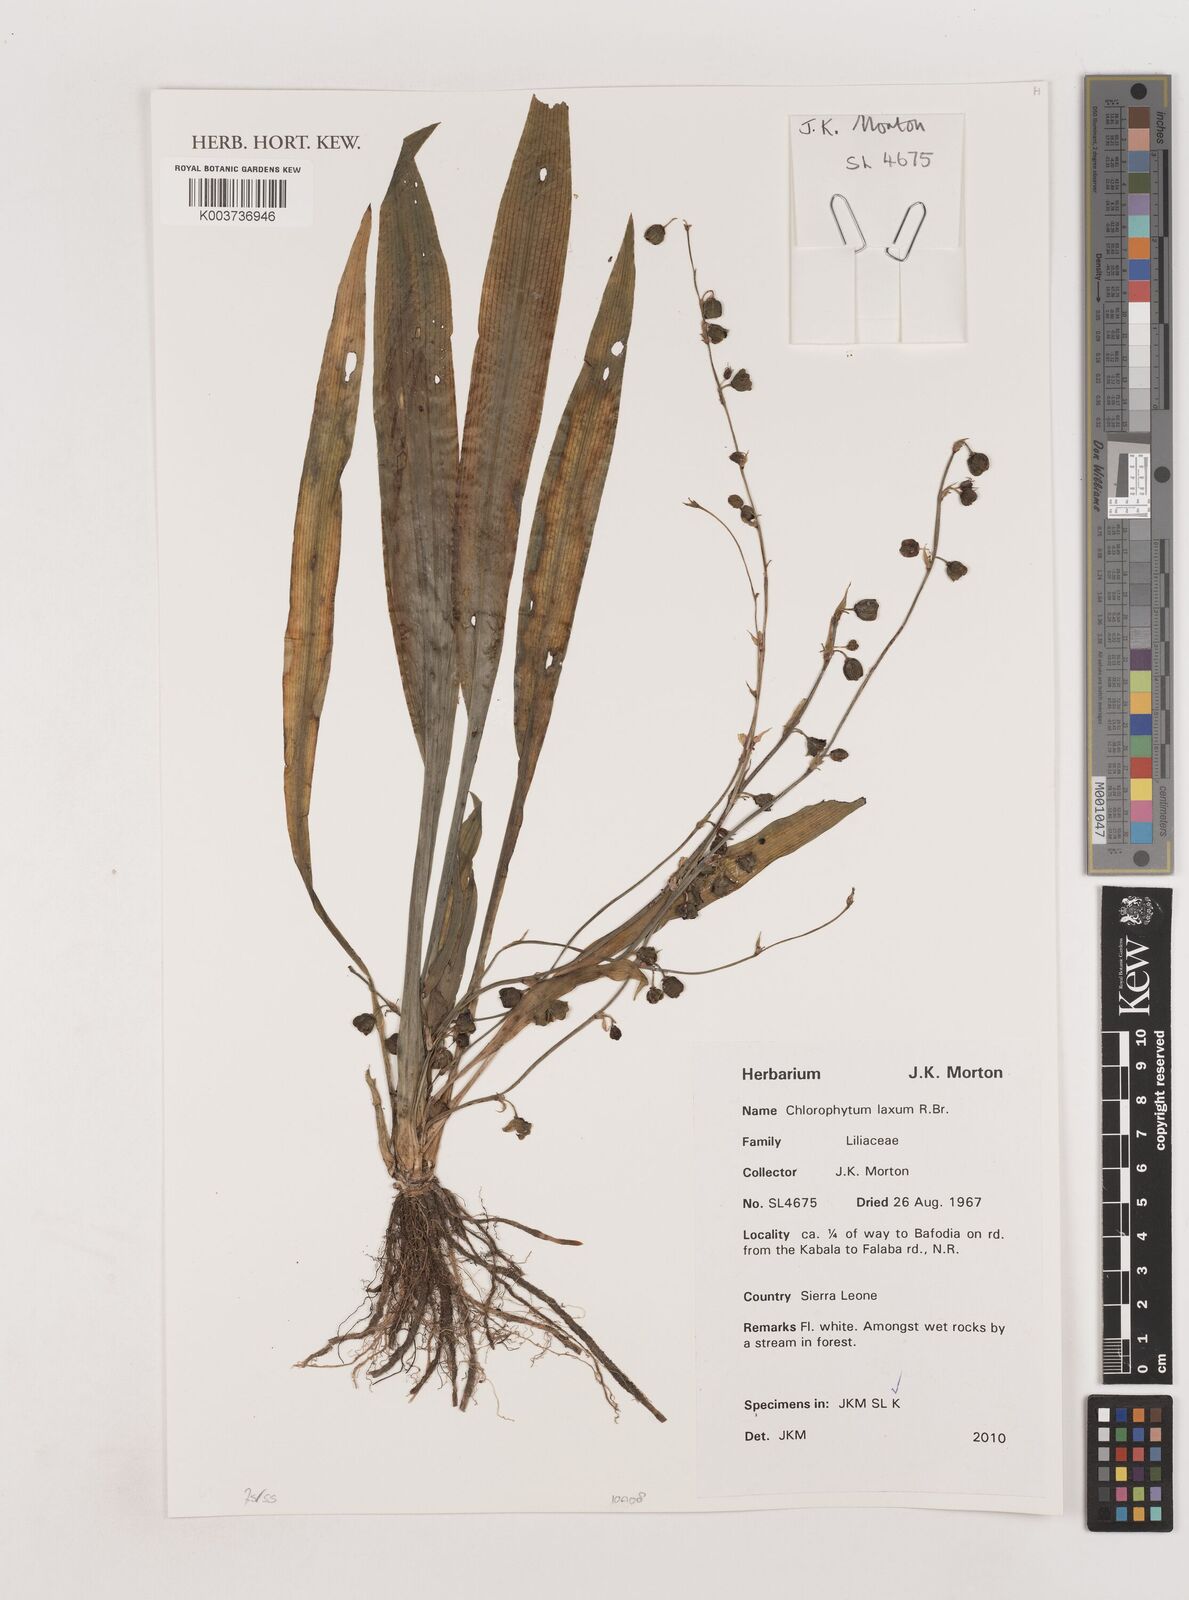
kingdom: Plantae
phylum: Tracheophyta
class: Liliopsida
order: Asparagales
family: Asparagaceae
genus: Chlorophytum
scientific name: Chlorophytum laxum
